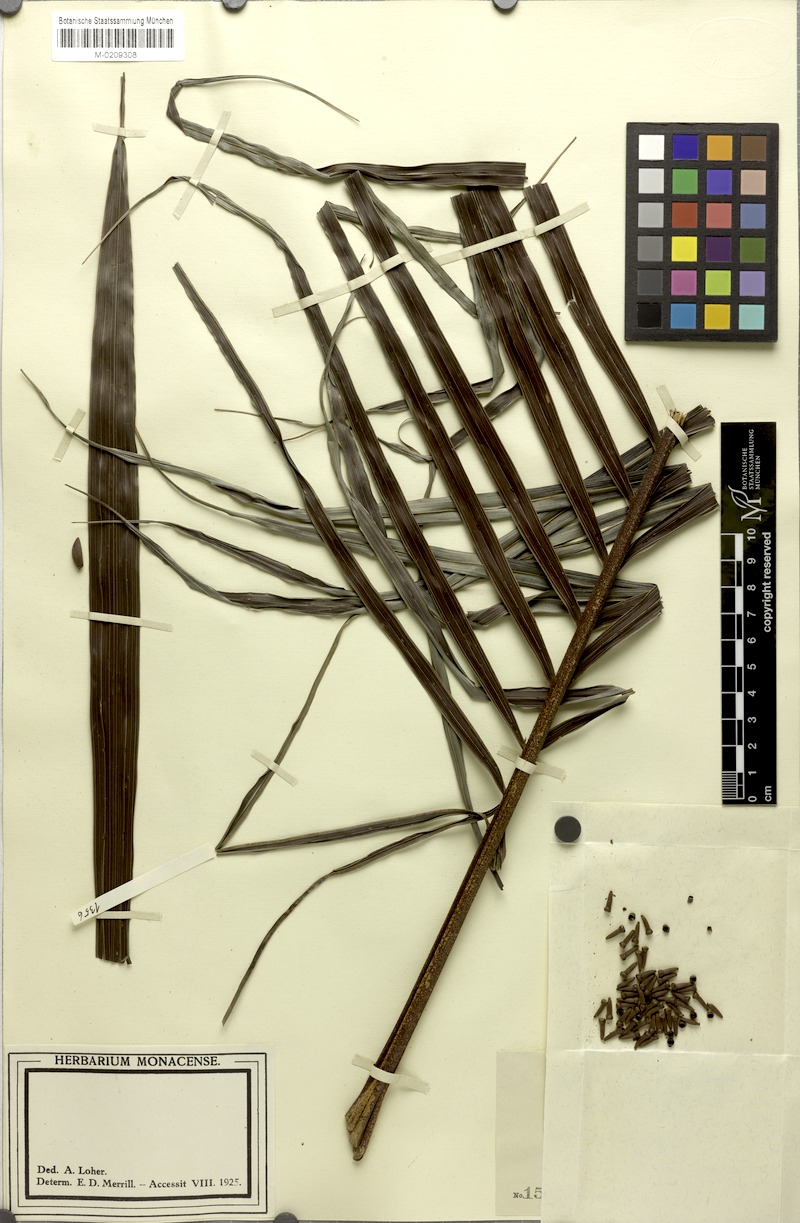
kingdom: Plantae
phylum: Tracheophyta
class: Liliopsida
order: Arecales
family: Arecaceae
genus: Pinanga
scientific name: Pinanga philippinensis
